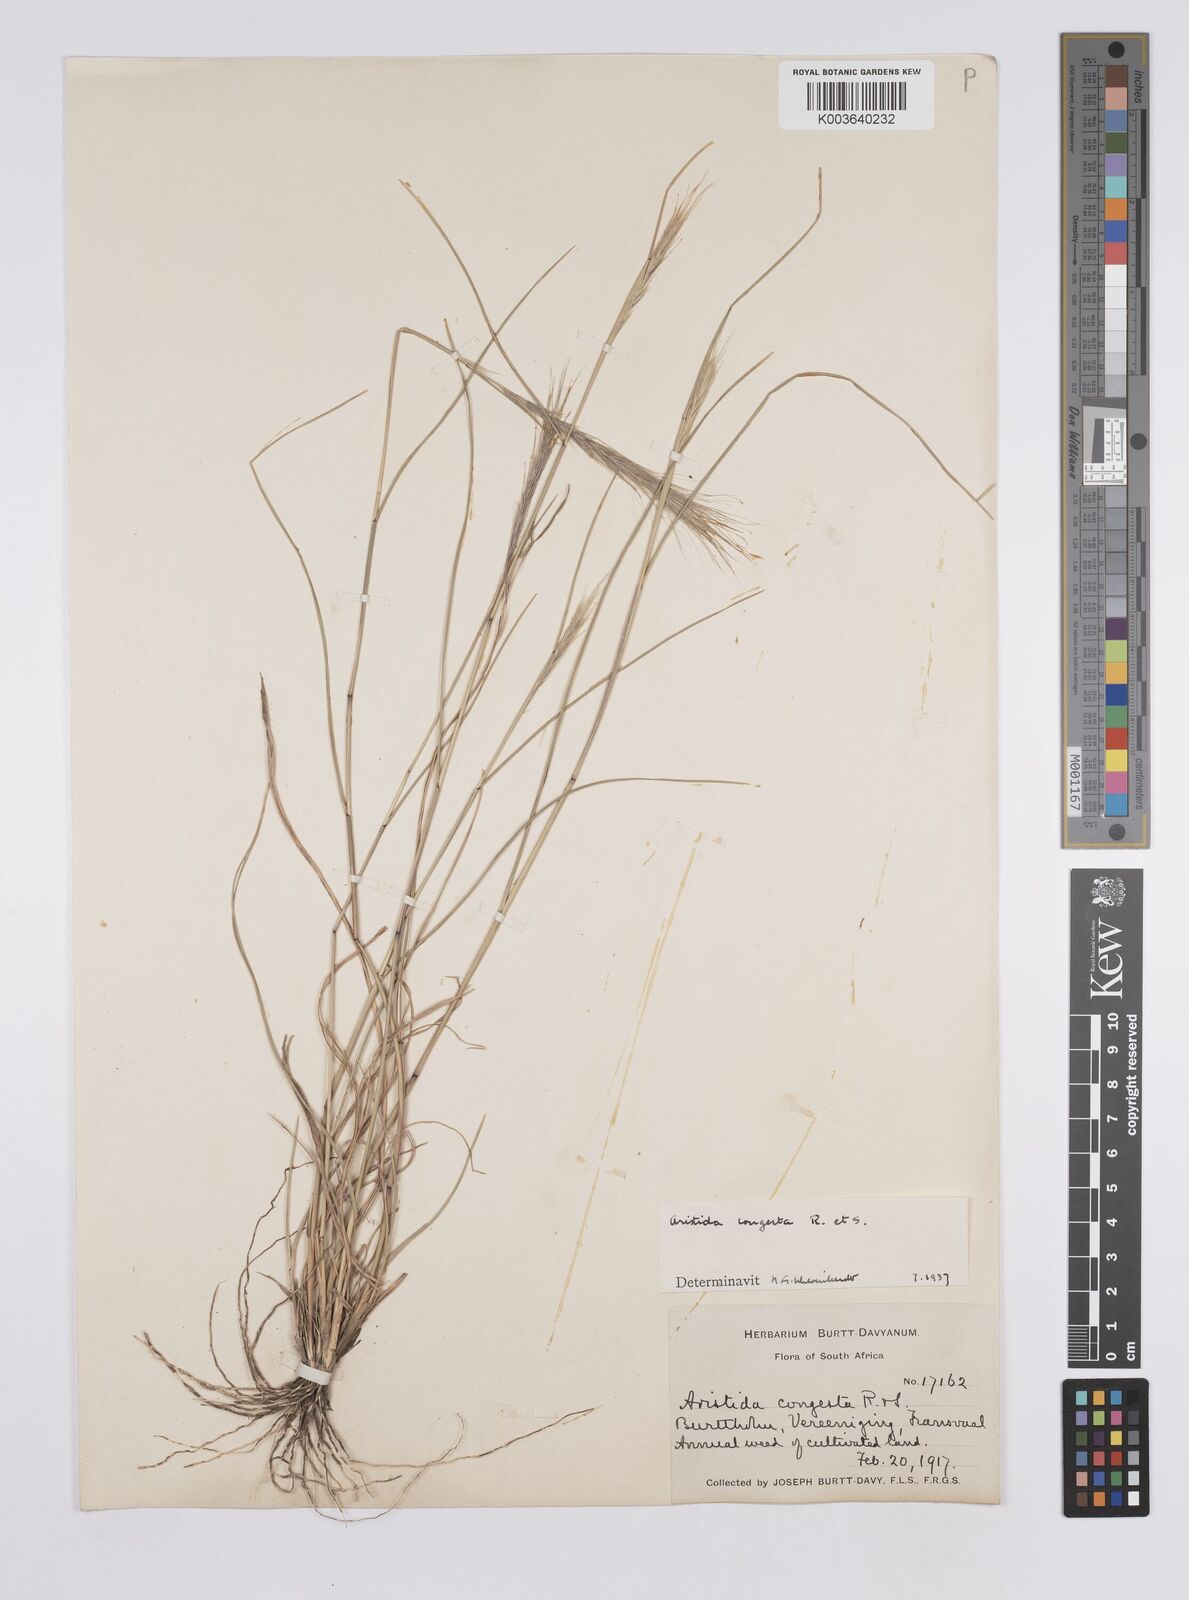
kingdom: Plantae
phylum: Tracheophyta
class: Liliopsida
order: Poales
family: Poaceae
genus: Aristida
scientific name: Aristida congesta
